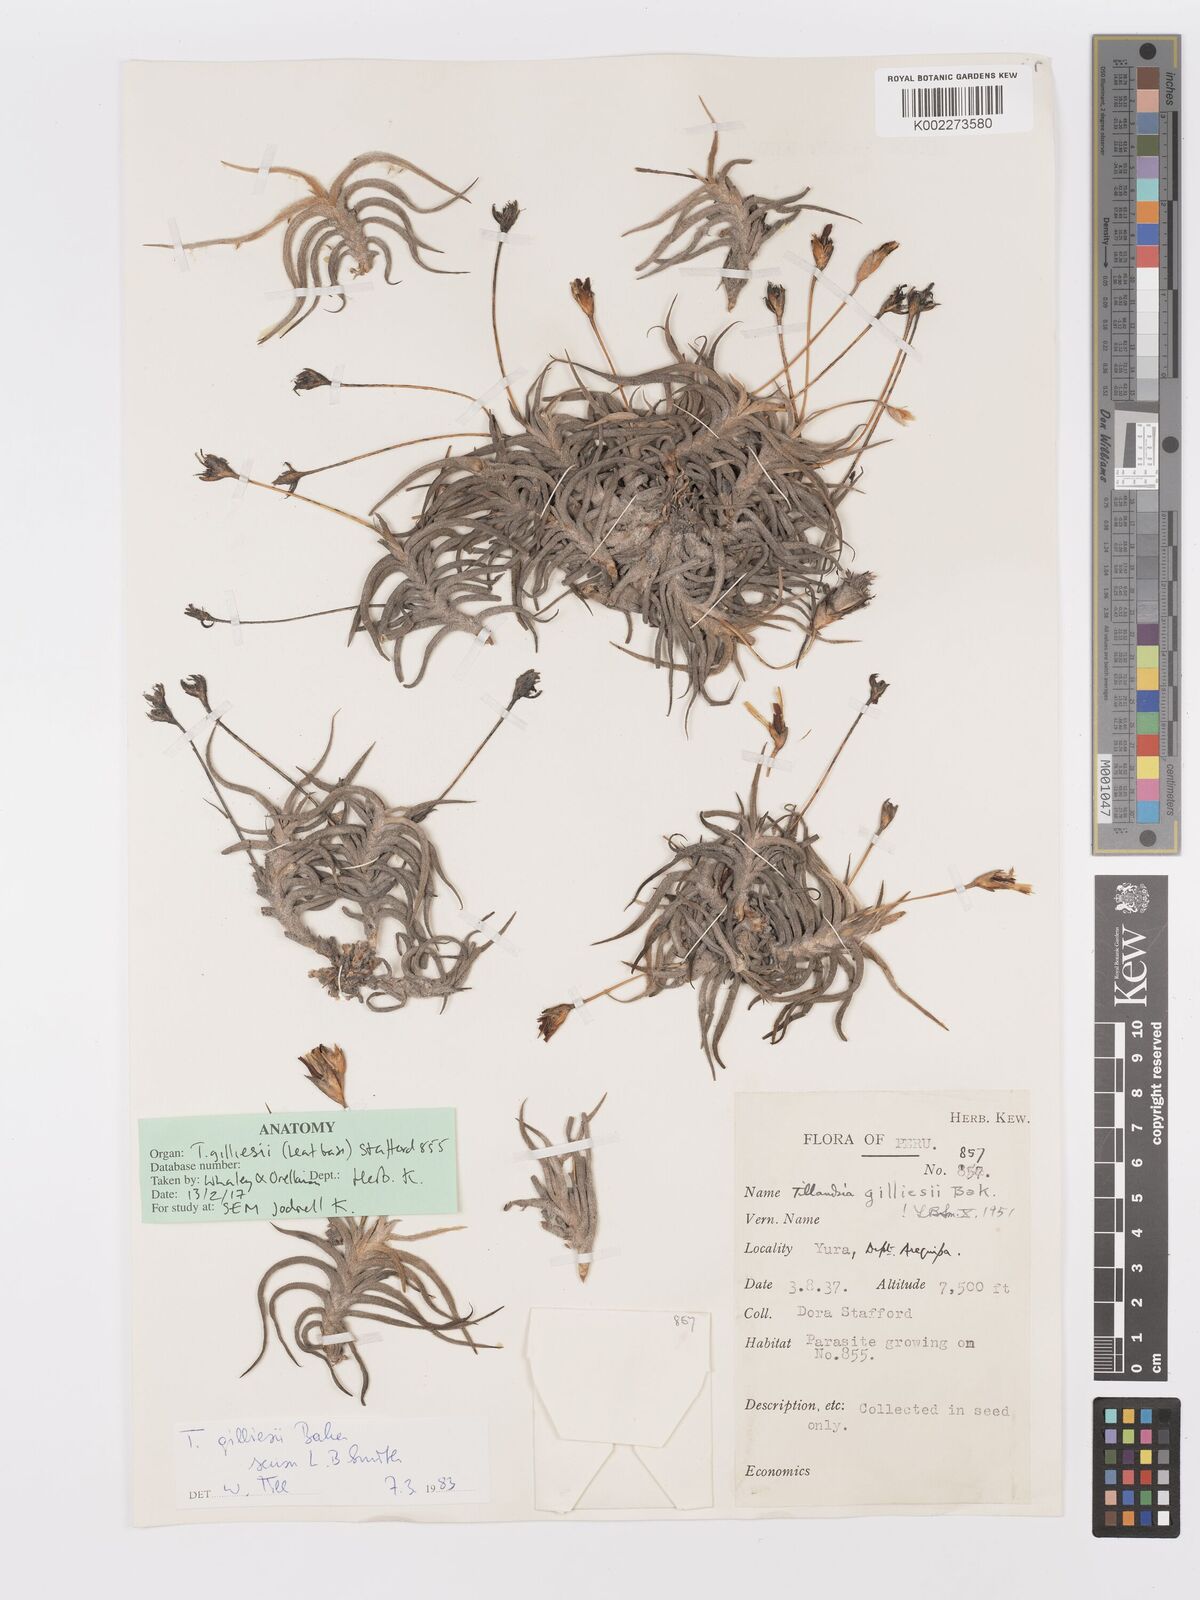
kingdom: Plantae
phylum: Tracheophyta
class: Liliopsida
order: Poales
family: Bromeliaceae
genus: Tillandsia
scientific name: Tillandsia gilliesii
